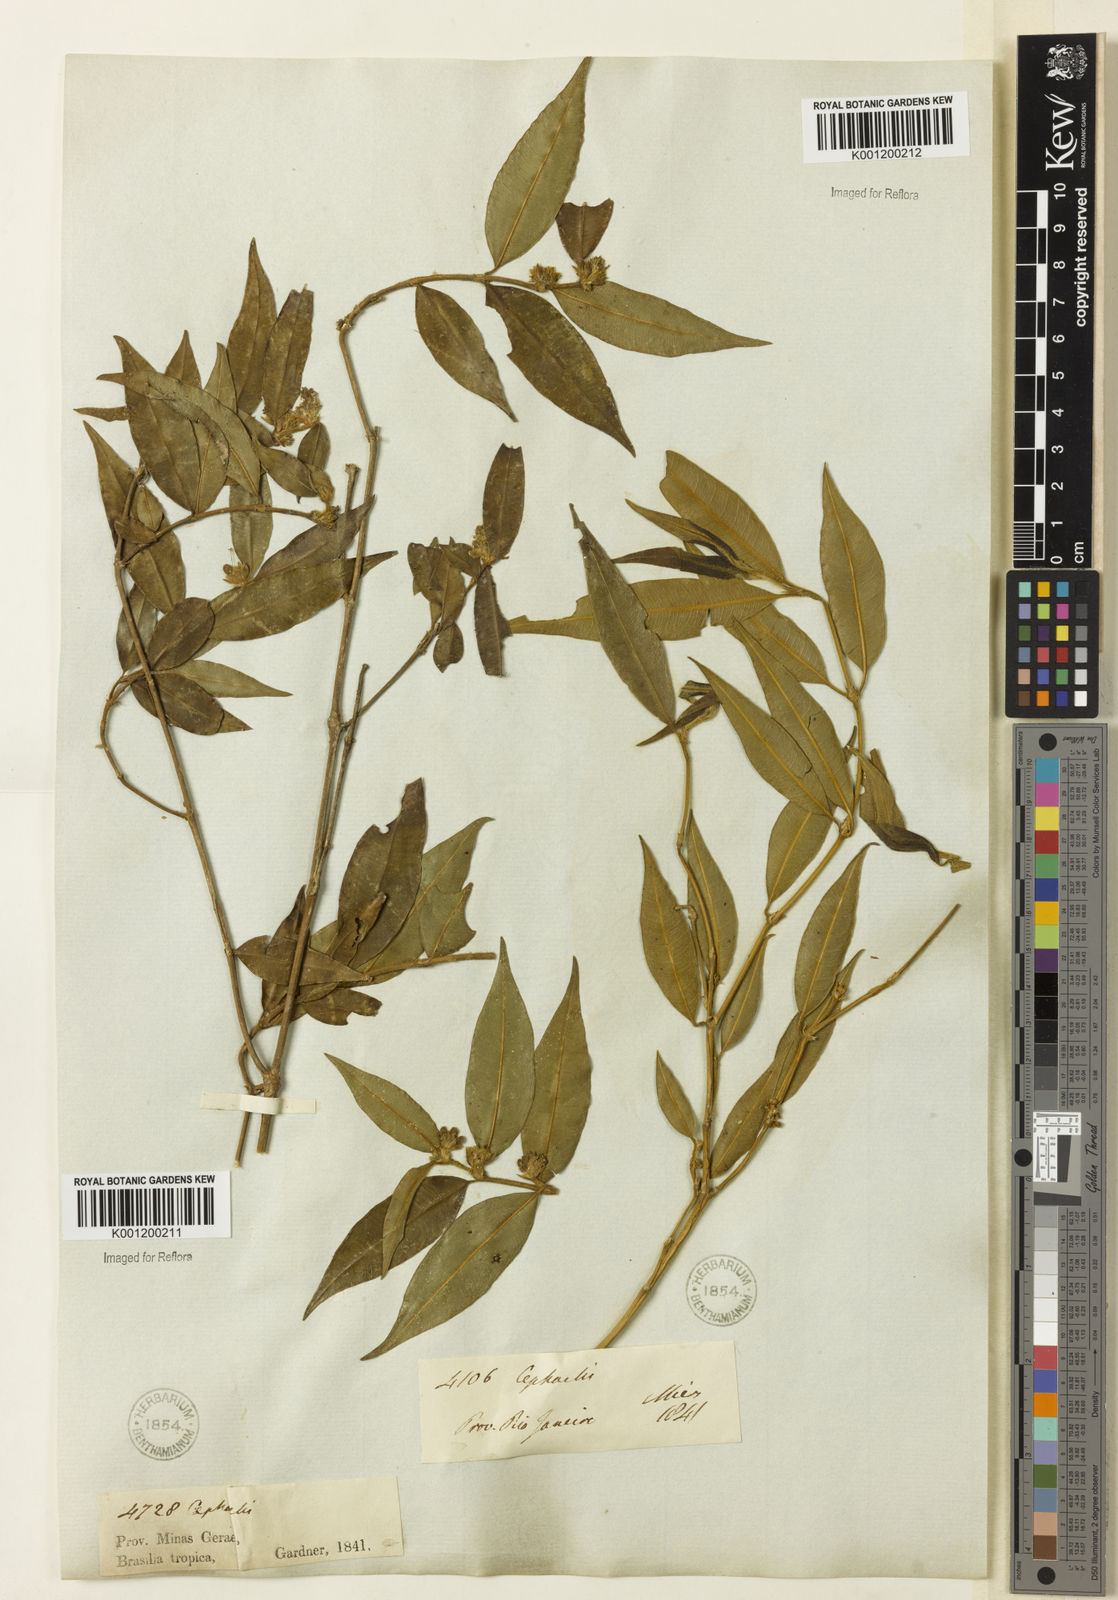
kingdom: Plantae
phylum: Tracheophyta
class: Magnoliopsida
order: Gentianales
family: Rubiaceae
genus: Rudgea
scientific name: Rudgea sessilis
